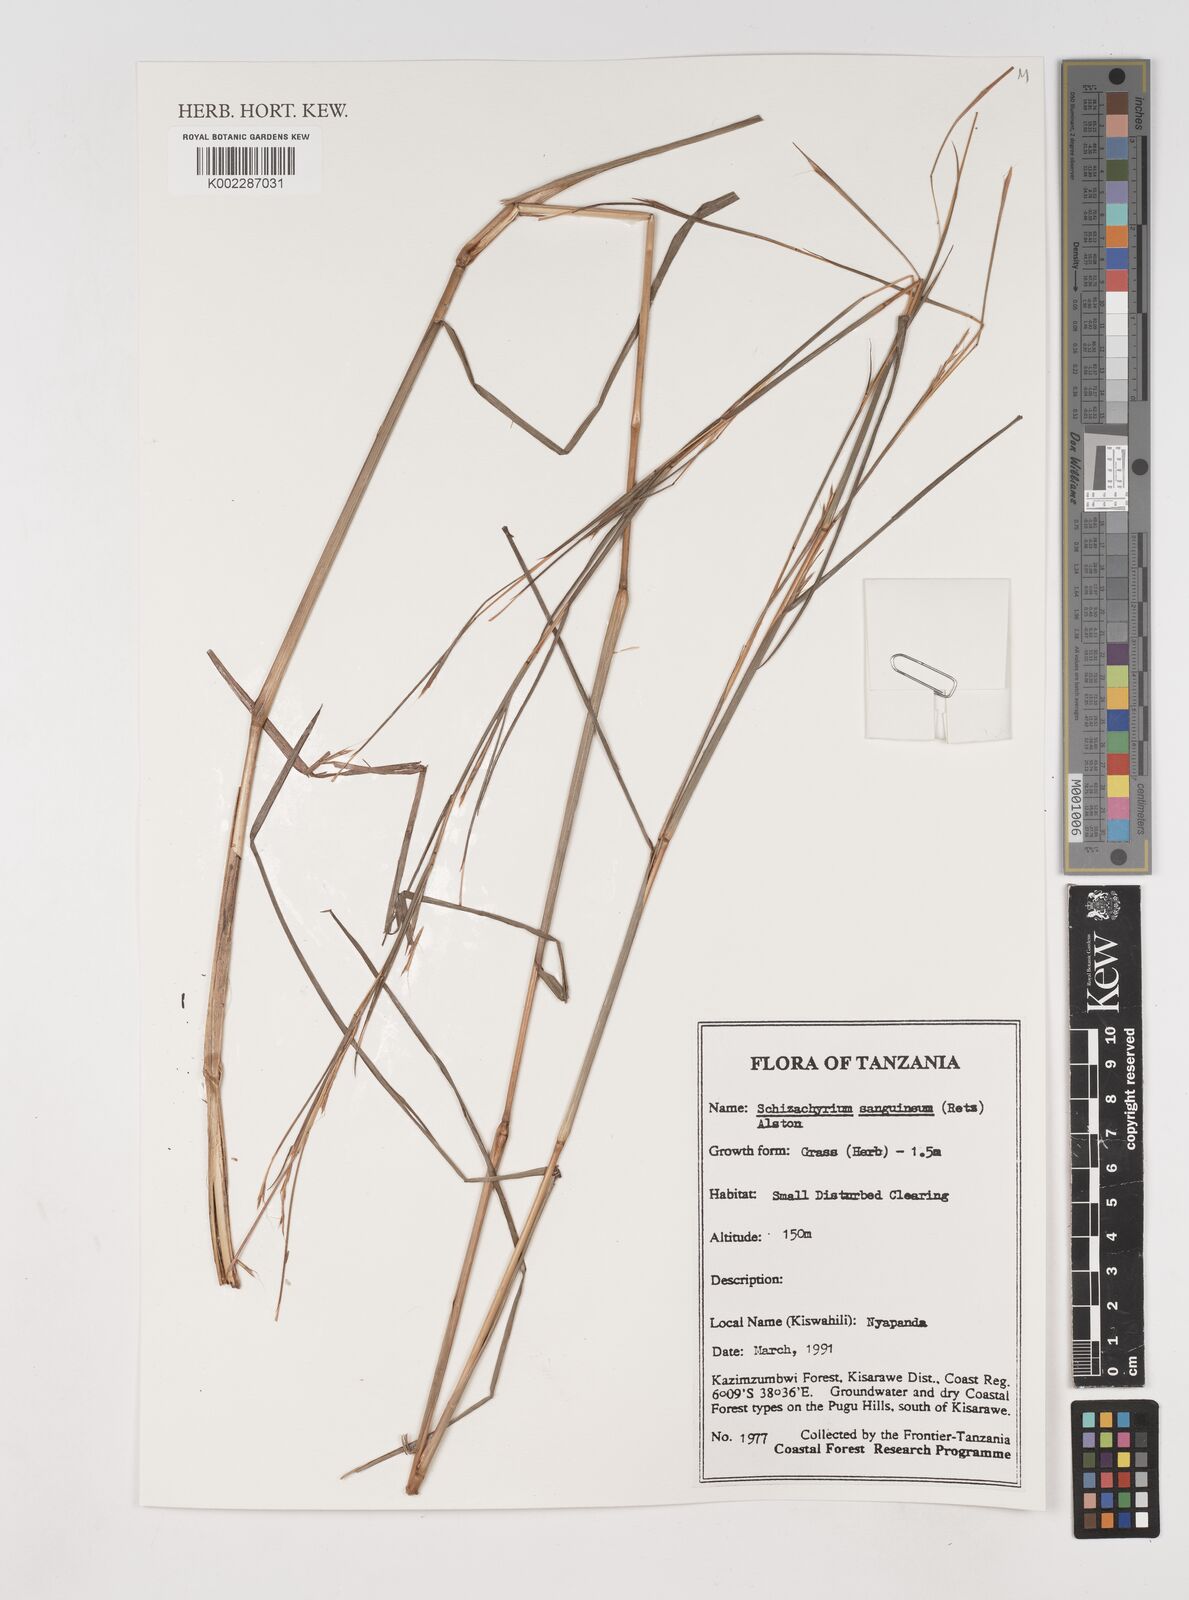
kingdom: Plantae
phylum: Tracheophyta
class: Liliopsida
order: Poales
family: Poaceae
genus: Schizachyrium
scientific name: Schizachyrium sanguineum
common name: Crimson bluestem
